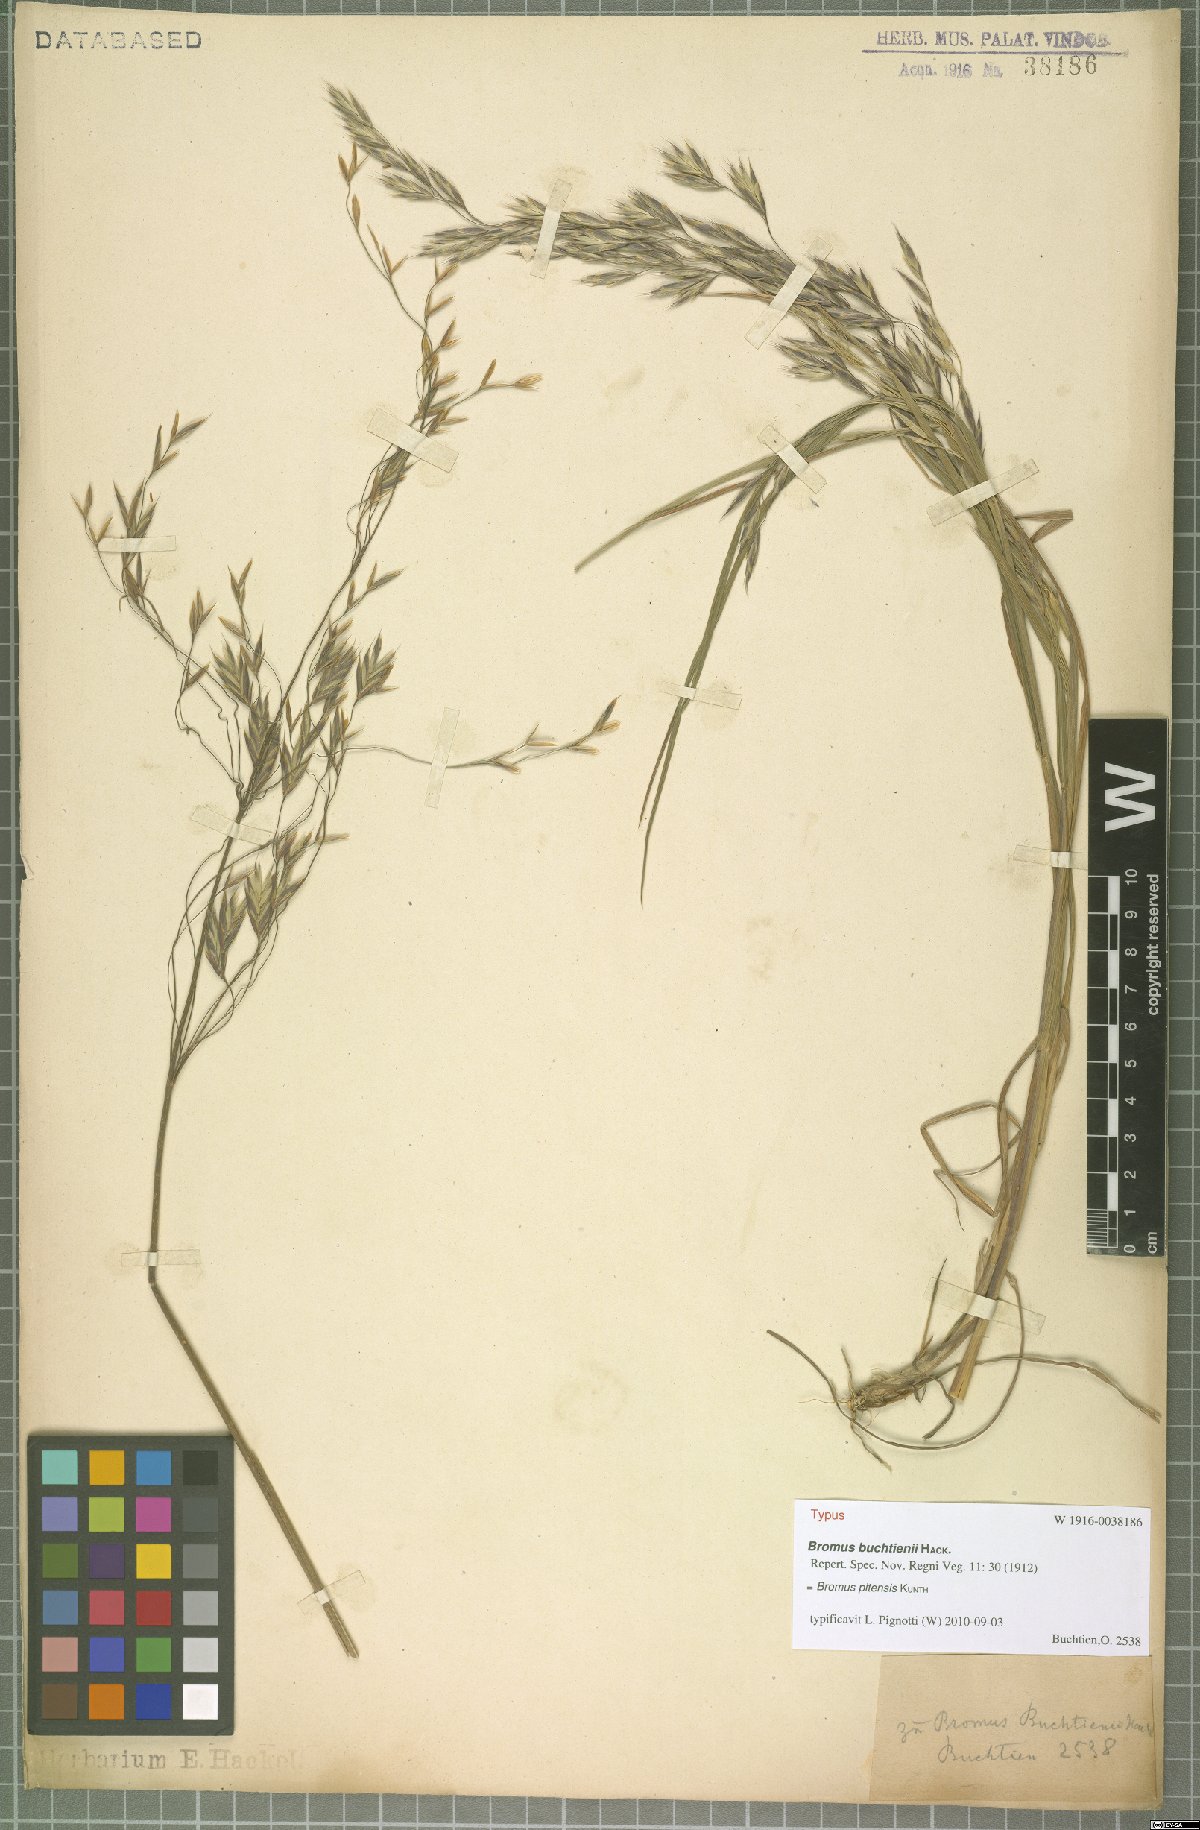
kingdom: Plantae
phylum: Tracheophyta
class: Liliopsida
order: Poales
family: Poaceae
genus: Bromus
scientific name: Bromus pitensis
